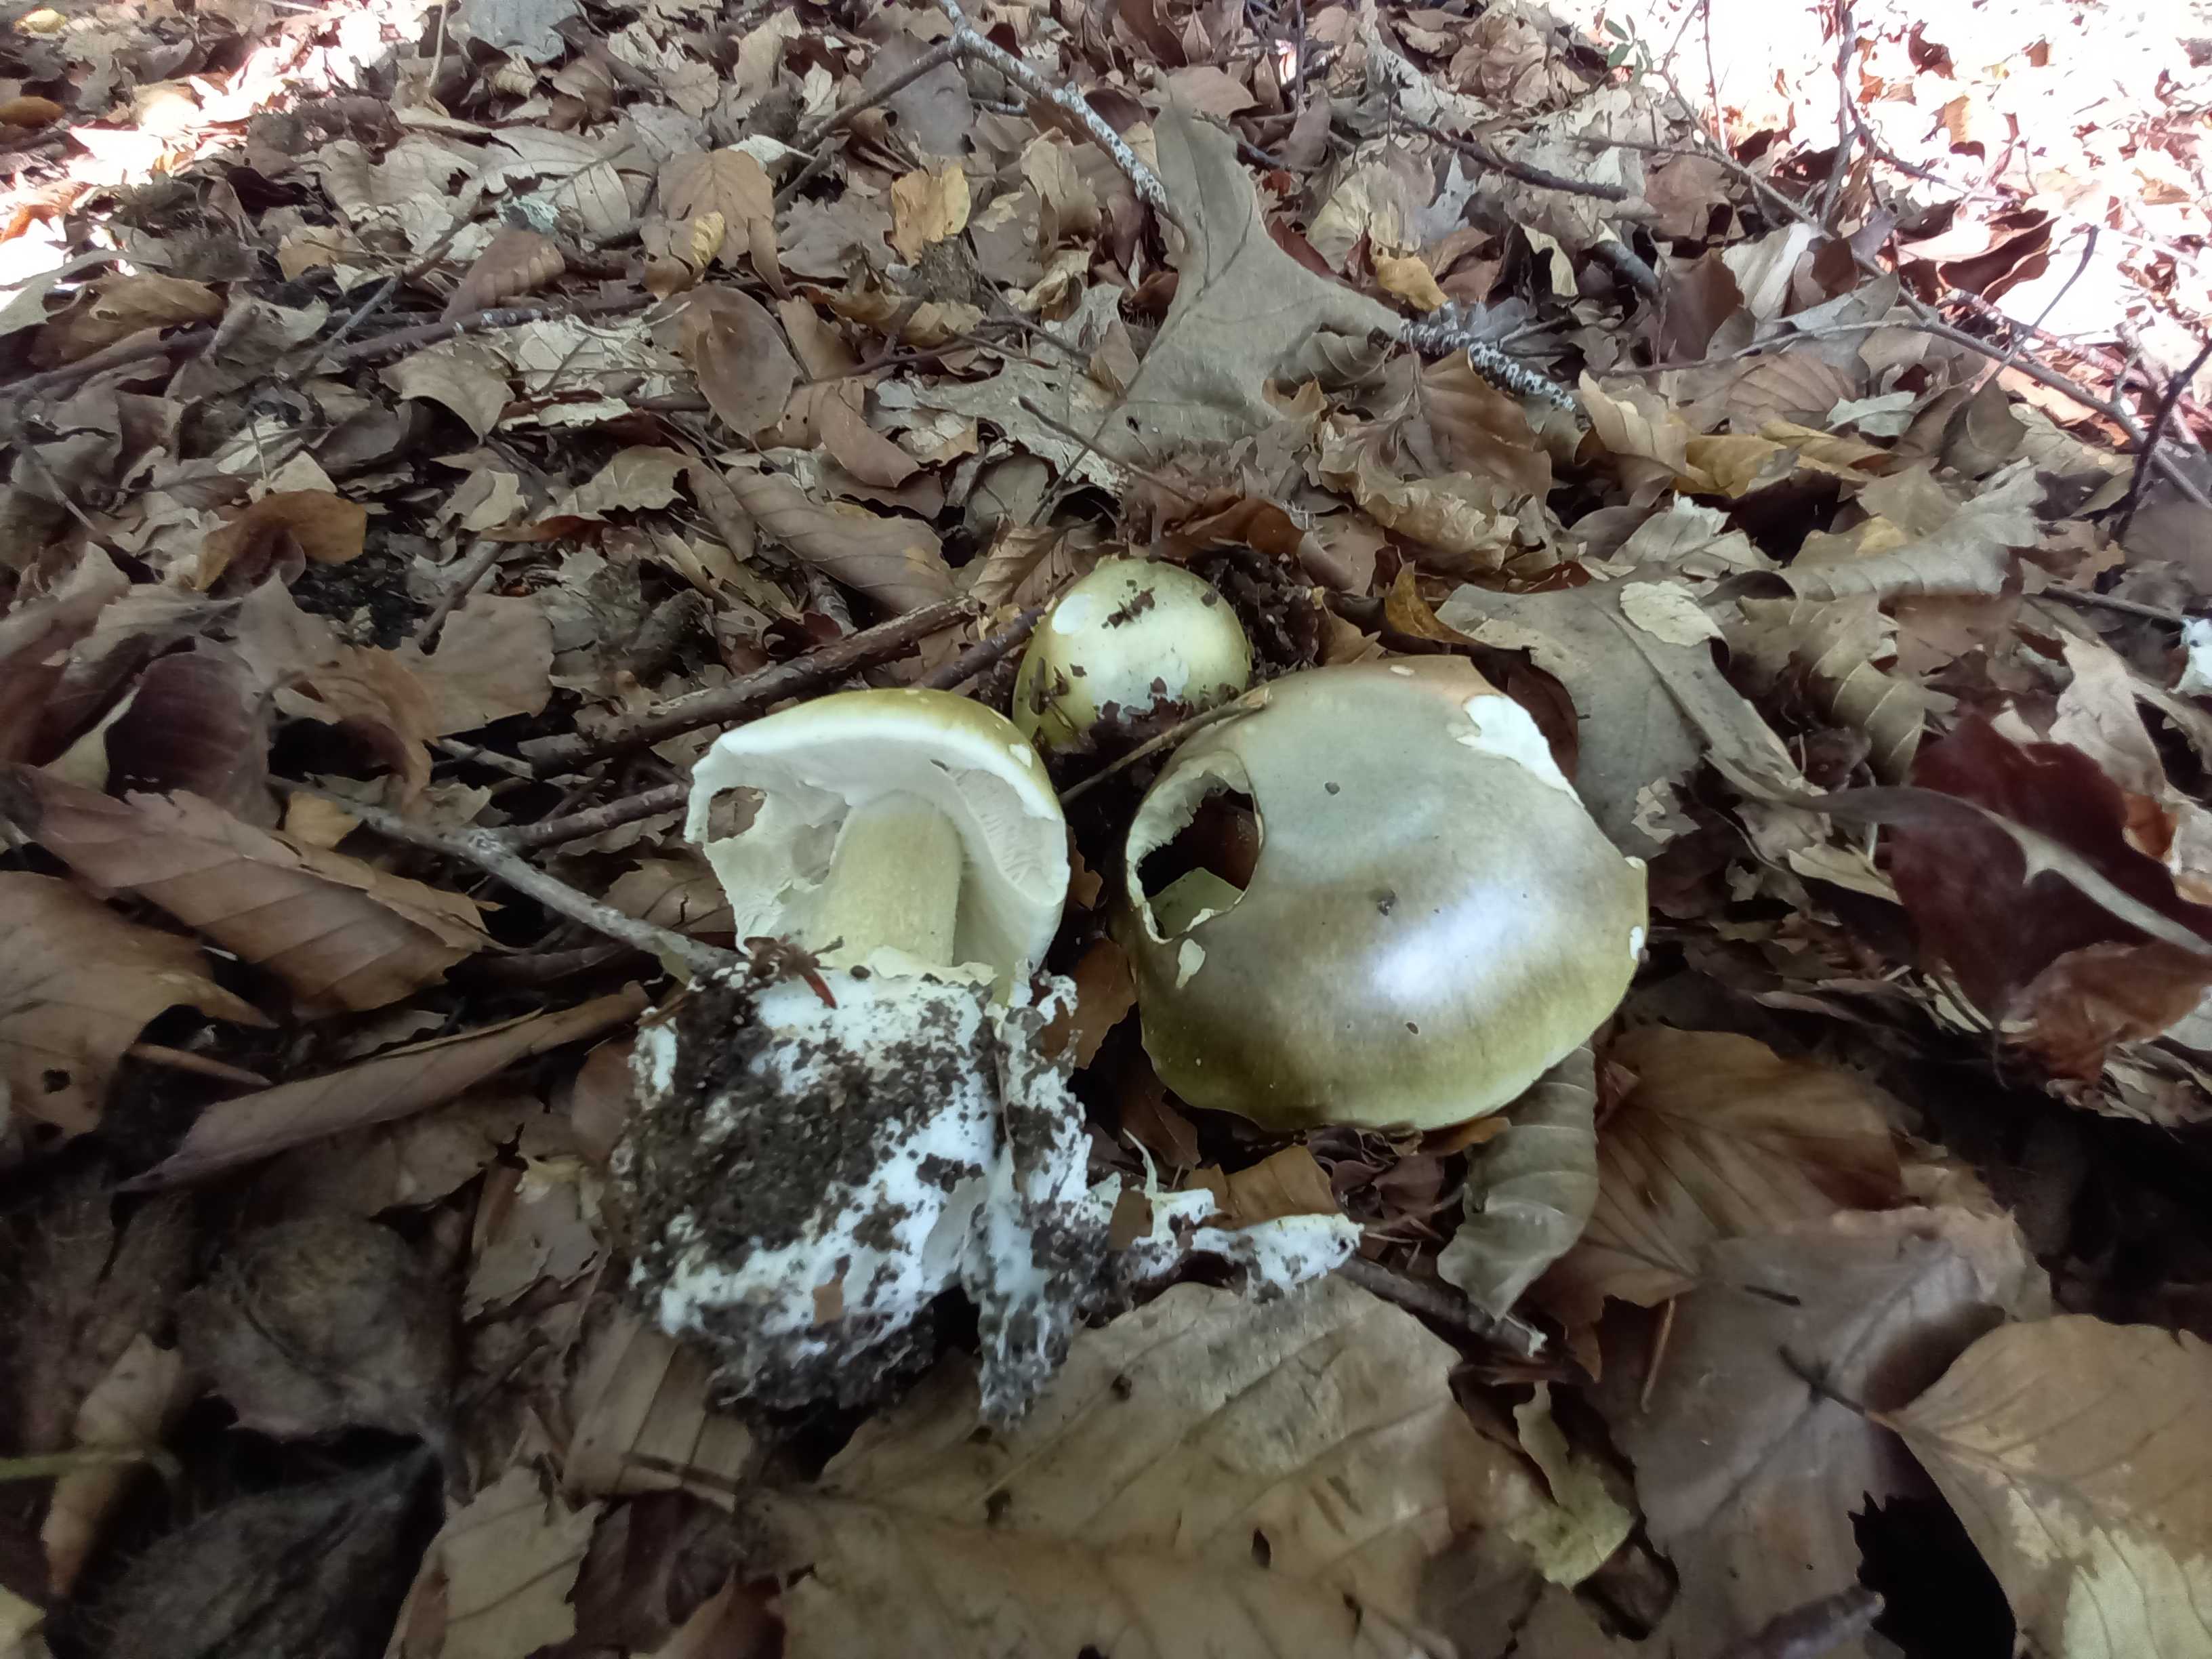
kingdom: Fungi
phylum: Basidiomycota
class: Agaricomycetes
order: Agaricales
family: Amanitaceae
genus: Amanita
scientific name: Amanita phalloides
